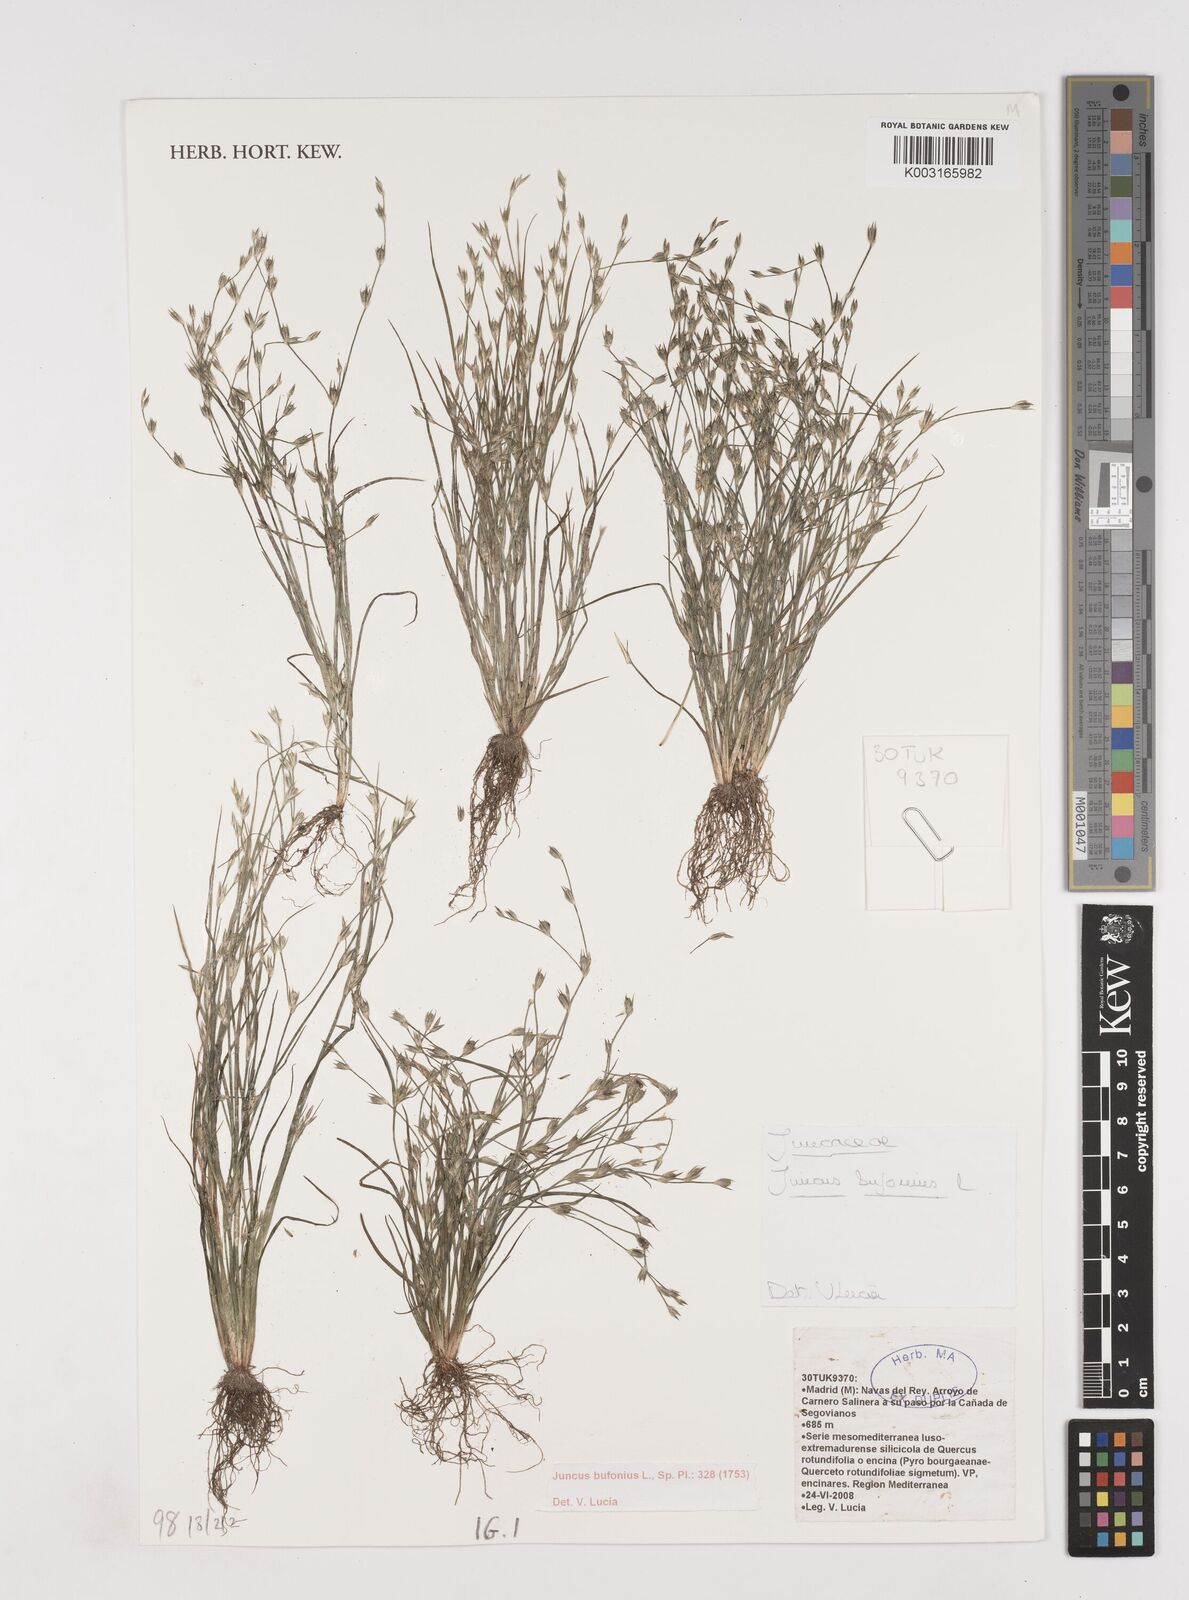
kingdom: Plantae
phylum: Tracheophyta
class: Liliopsida
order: Poales
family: Juncaceae
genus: Juncus
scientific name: Juncus bufonius
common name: Toad rush
